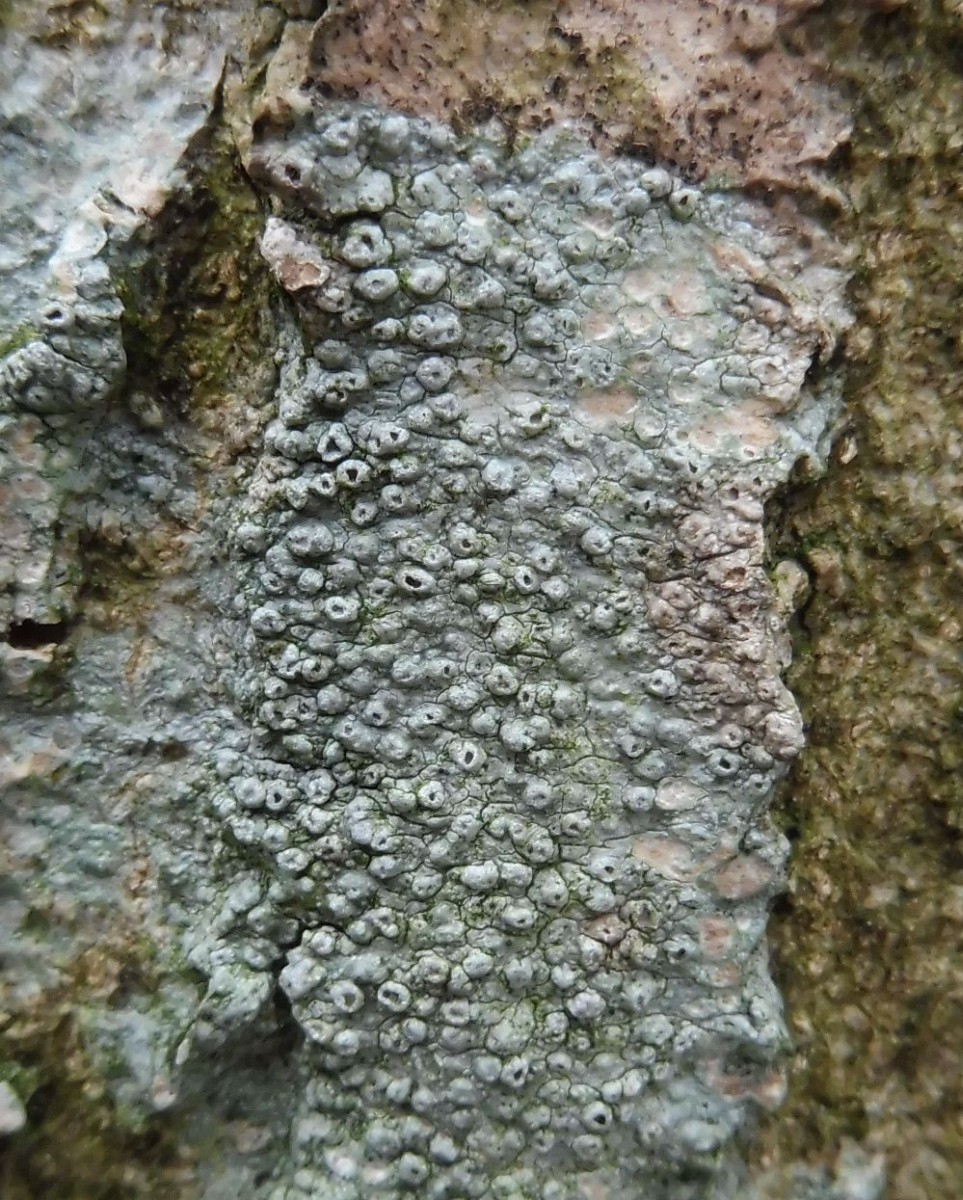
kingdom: Fungi
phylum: Ascomycota
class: Lecanoromycetes
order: Pertusariales
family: Pertusariaceae
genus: Pertusaria
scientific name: Pertusaria hymenea
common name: åben prikvortelav
